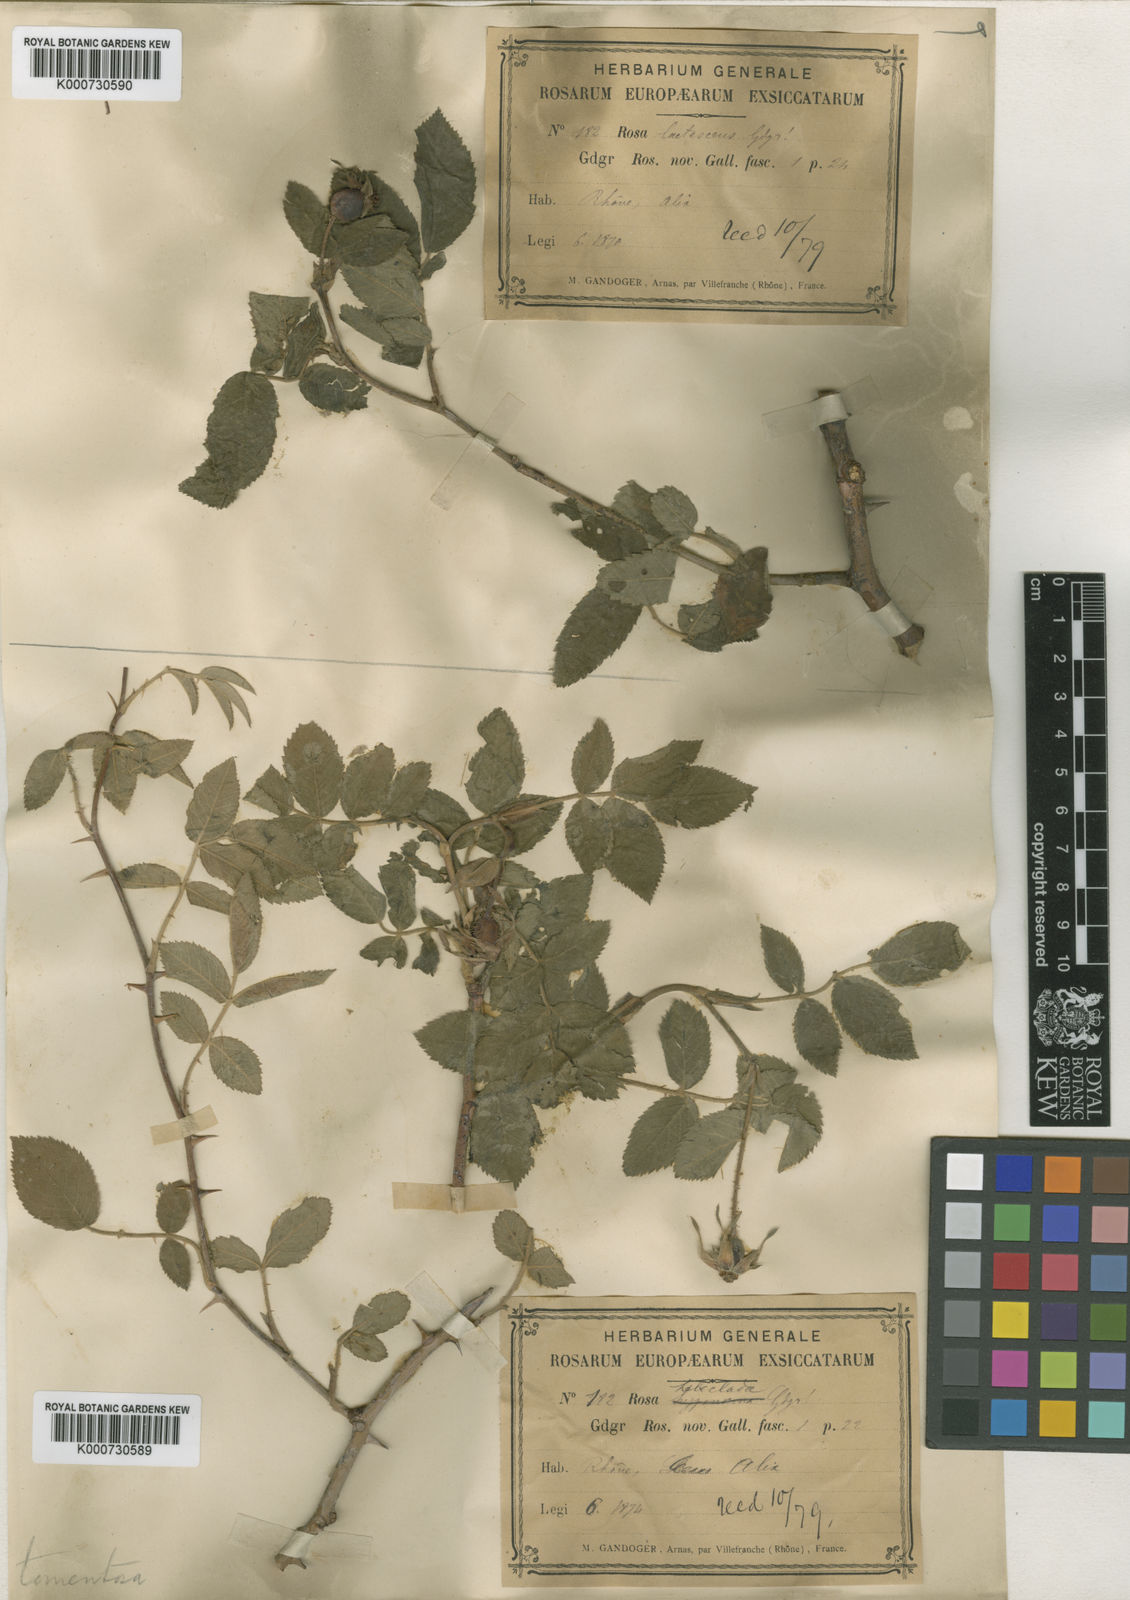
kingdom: Plantae
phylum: Tracheophyta
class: Magnoliopsida
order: Rosales
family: Rosaceae
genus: Rosa
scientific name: Rosa tomentosa
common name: Downy rose
